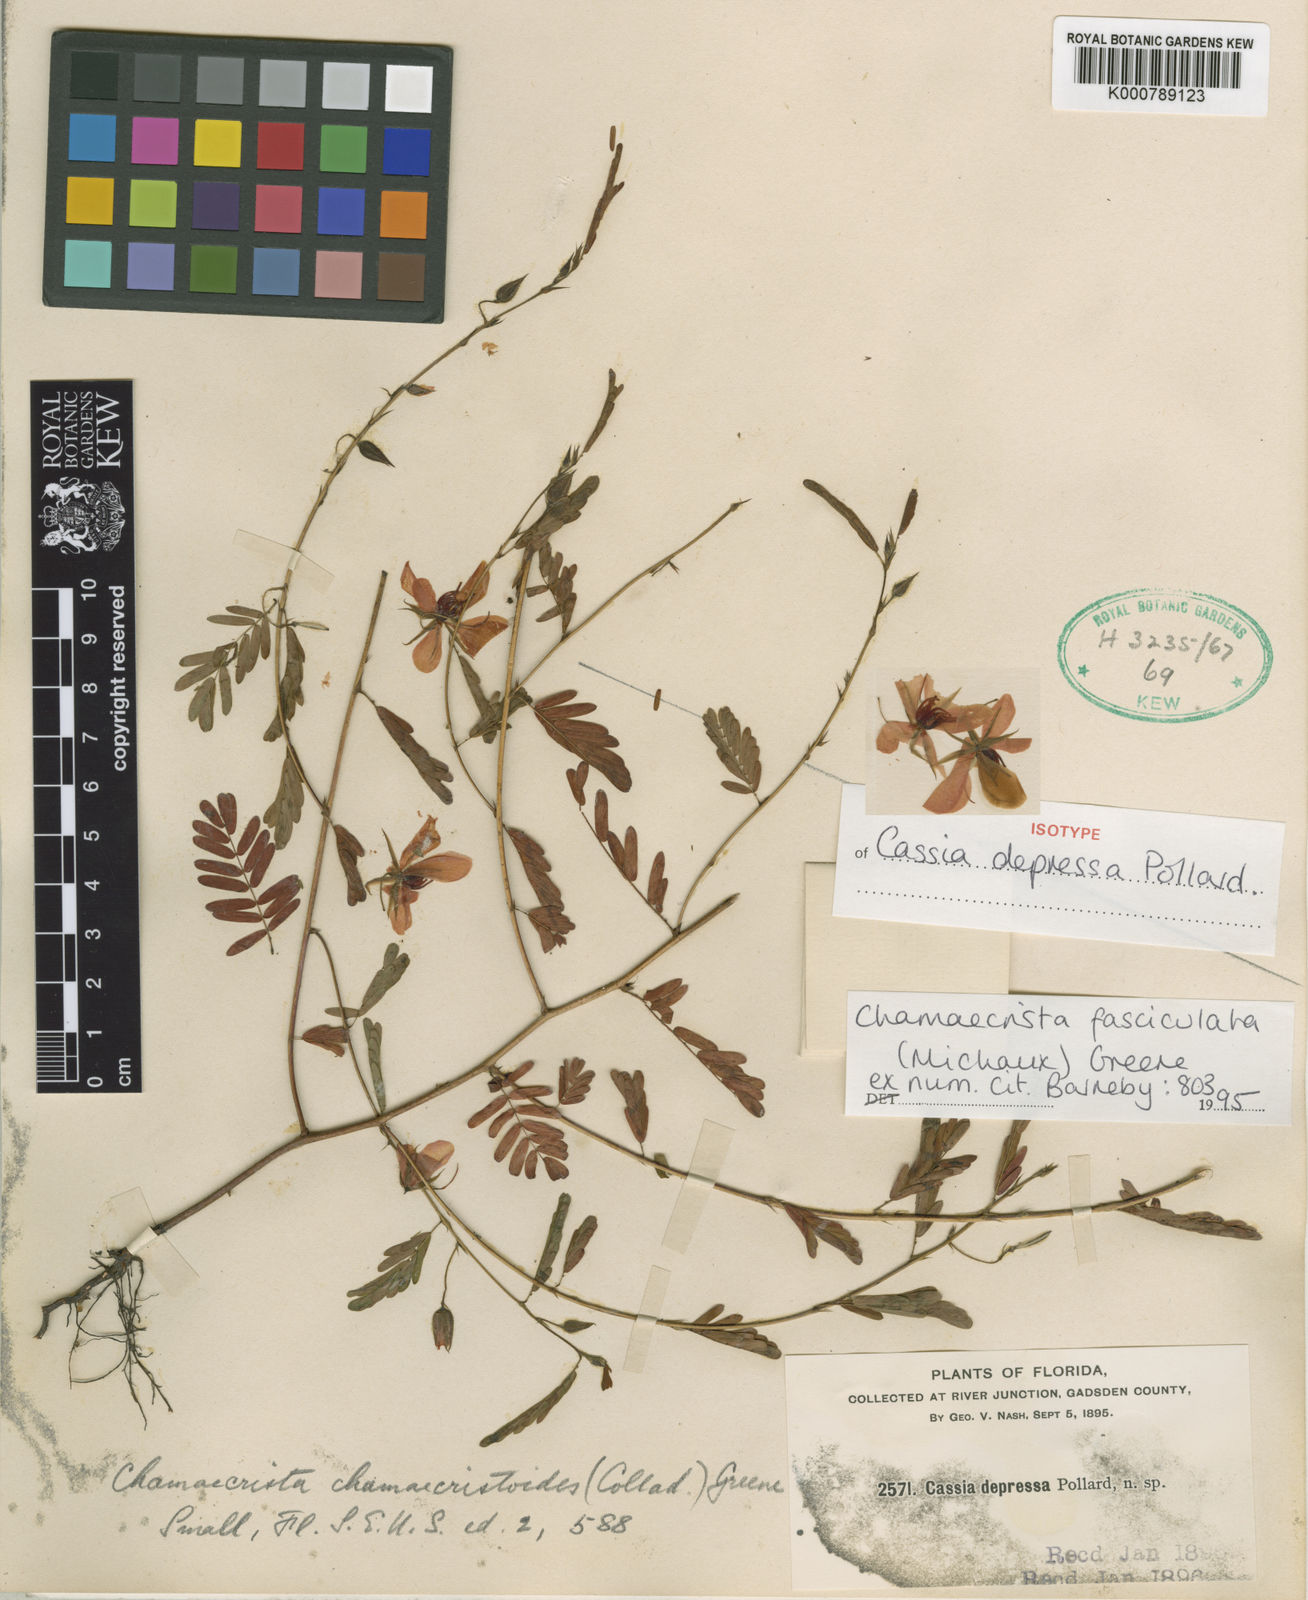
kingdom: Plantae
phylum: Tracheophyta
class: Magnoliopsida
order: Fabales
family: Fabaceae
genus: Chamaecrista
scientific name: Chamaecrista fasciculata
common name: Golden cassia
